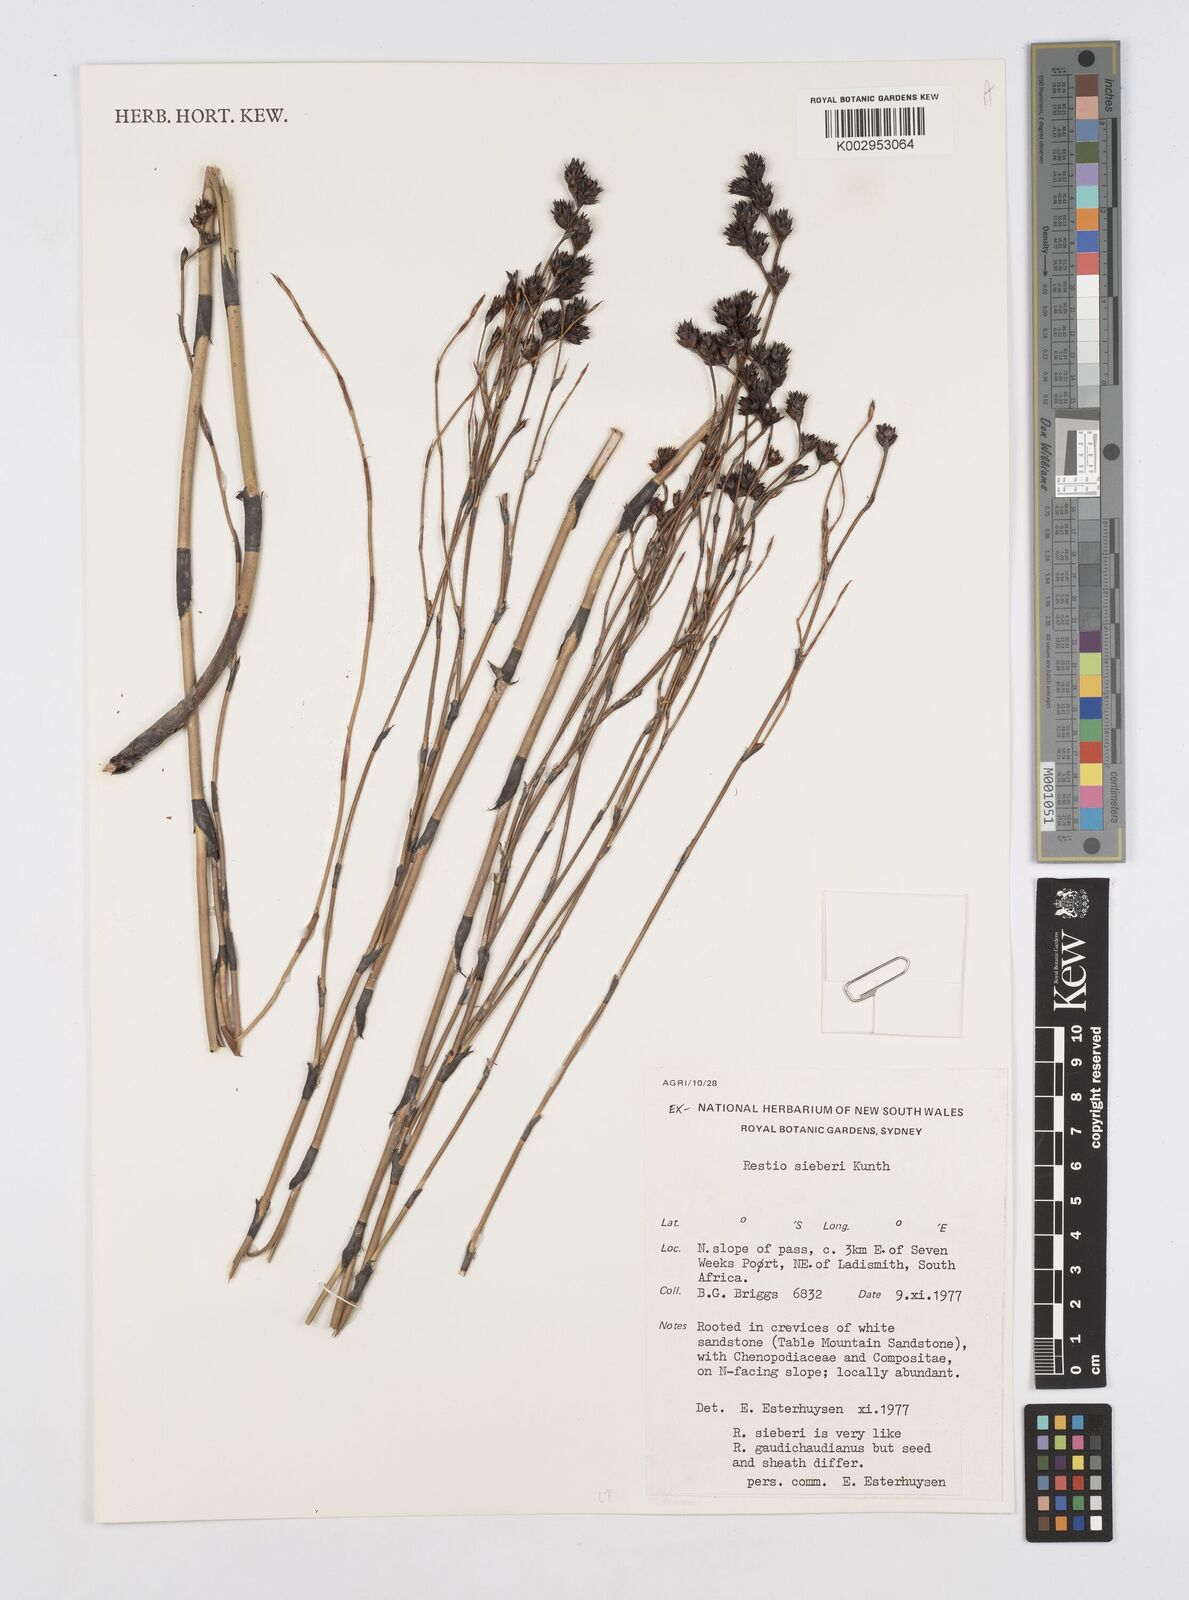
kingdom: Plantae
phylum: Tracheophyta
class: Liliopsida
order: Poales
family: Restionaceae
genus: Restio
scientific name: Restio sieberi
